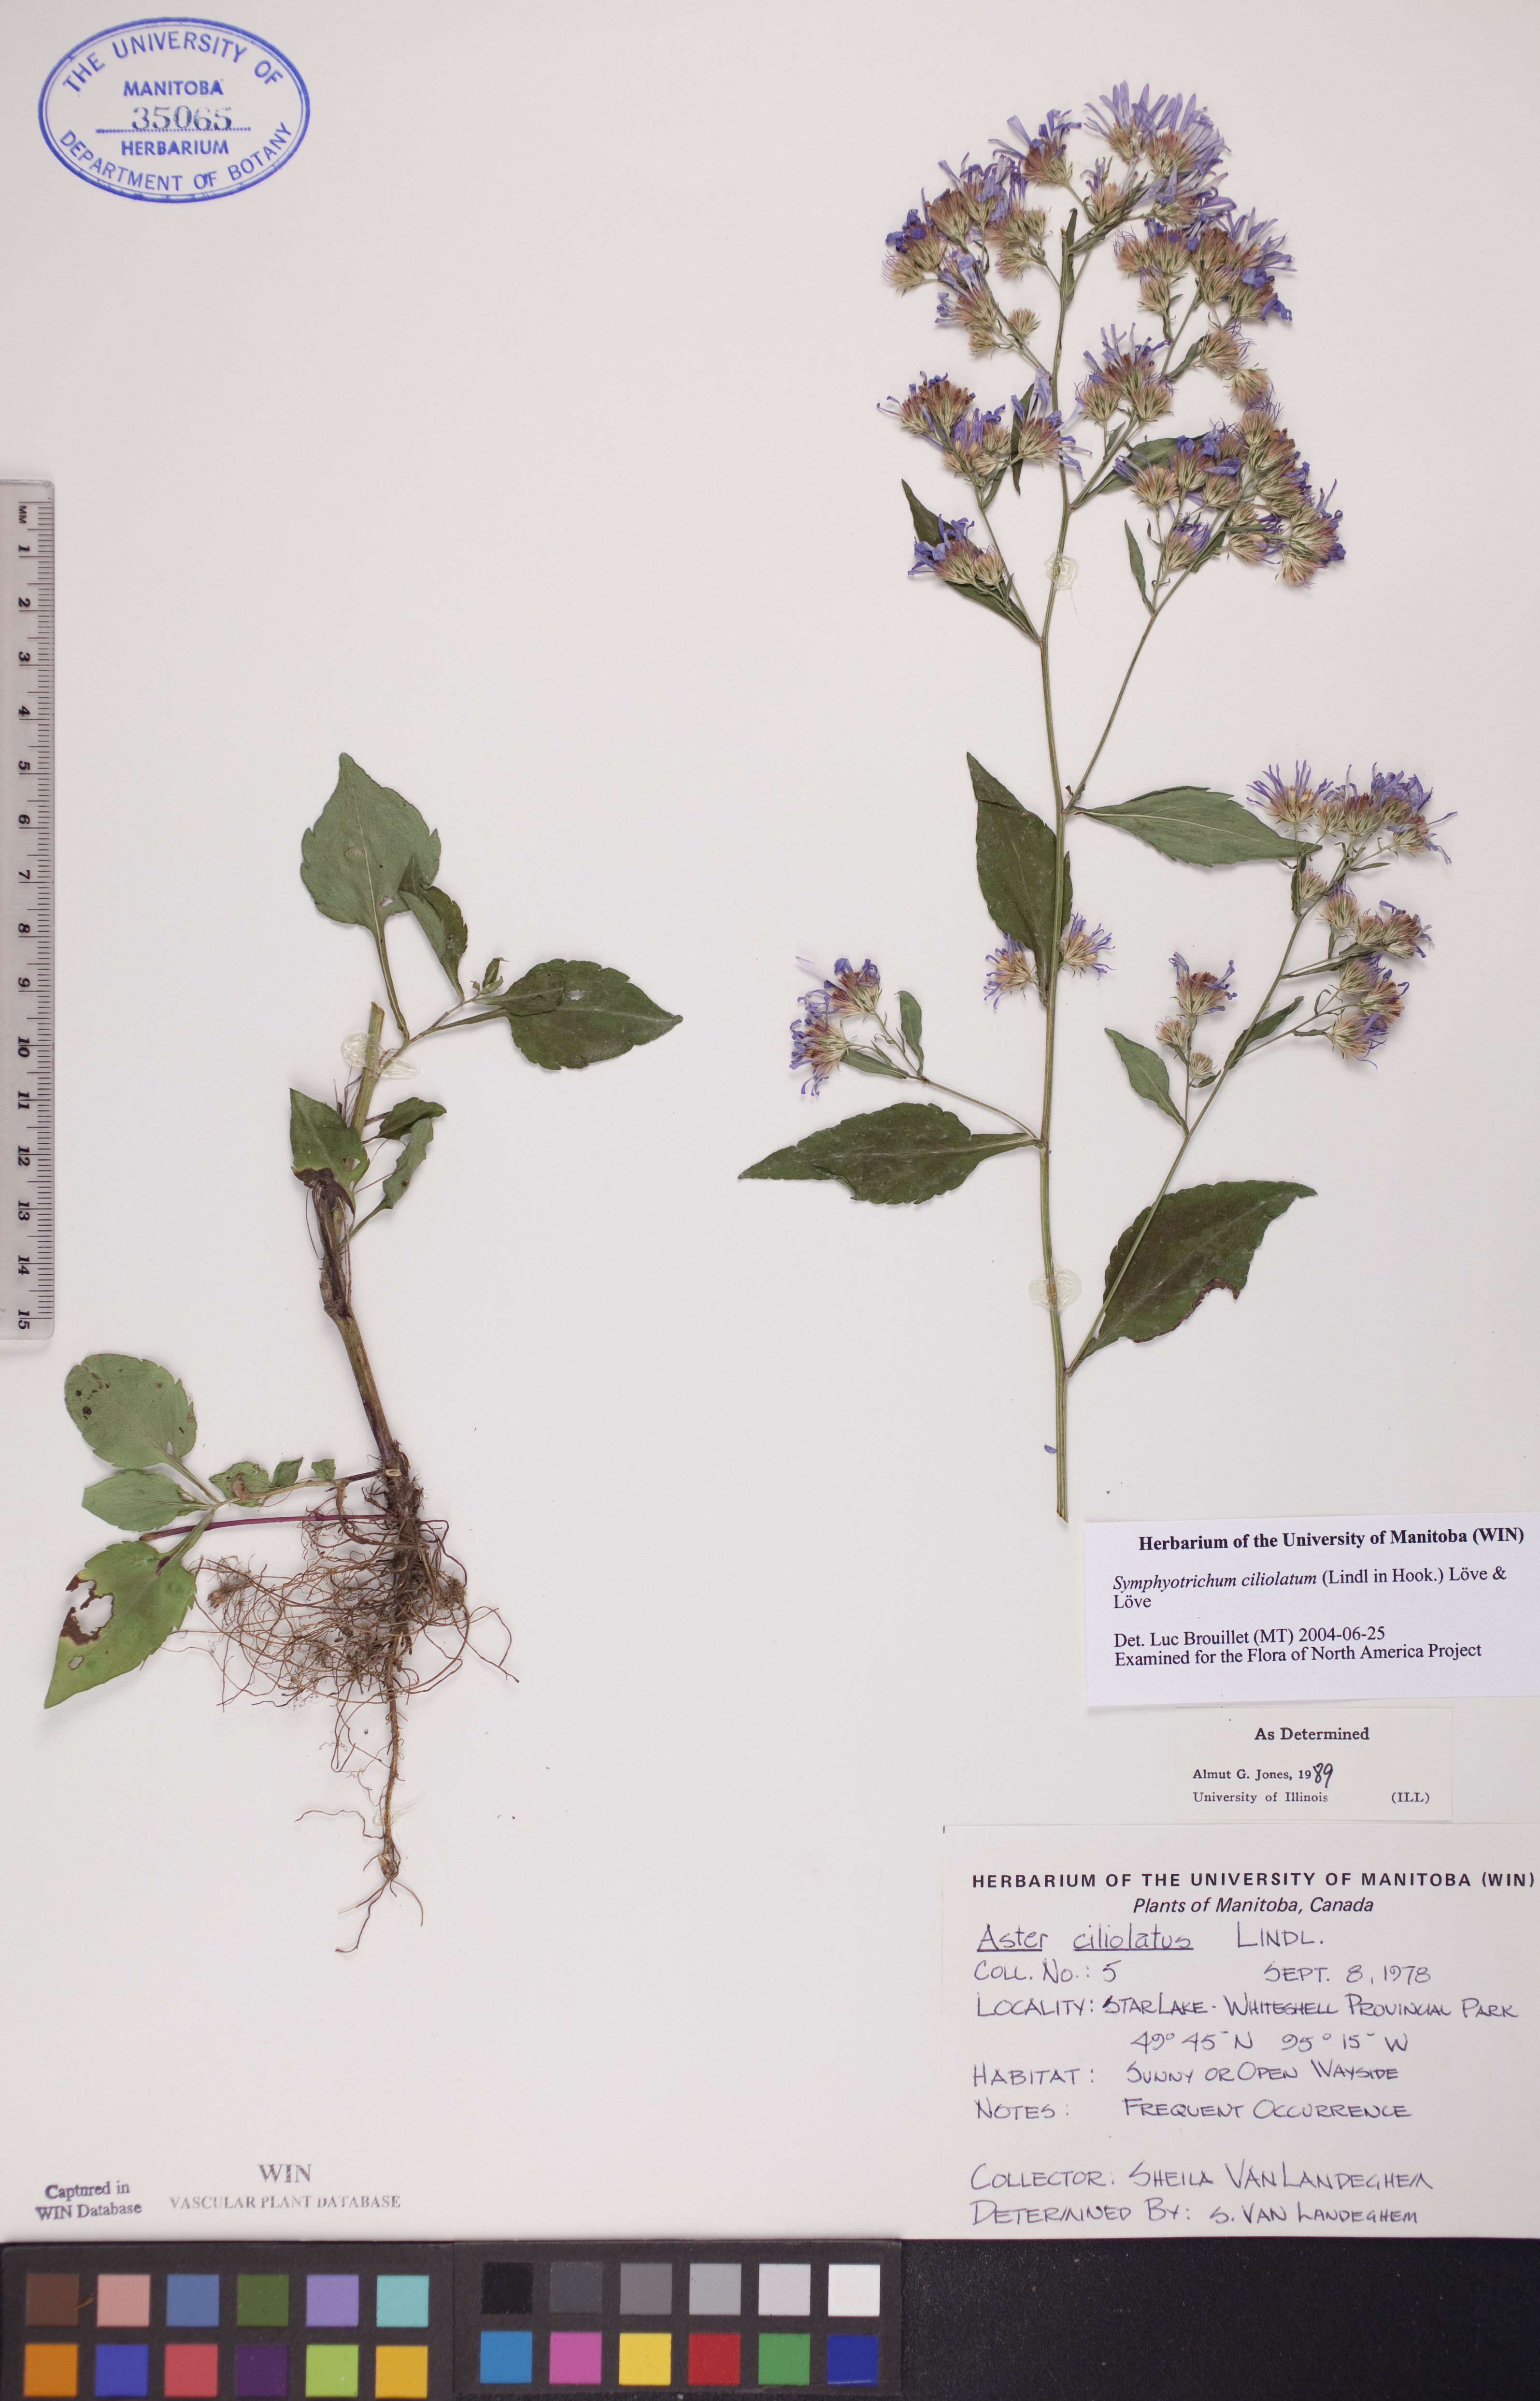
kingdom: Plantae
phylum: Tracheophyta
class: Magnoliopsida
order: Asterales
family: Asteraceae
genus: Symphyotrichum
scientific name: Symphyotrichum ciliolatum
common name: Fringed blue aster
